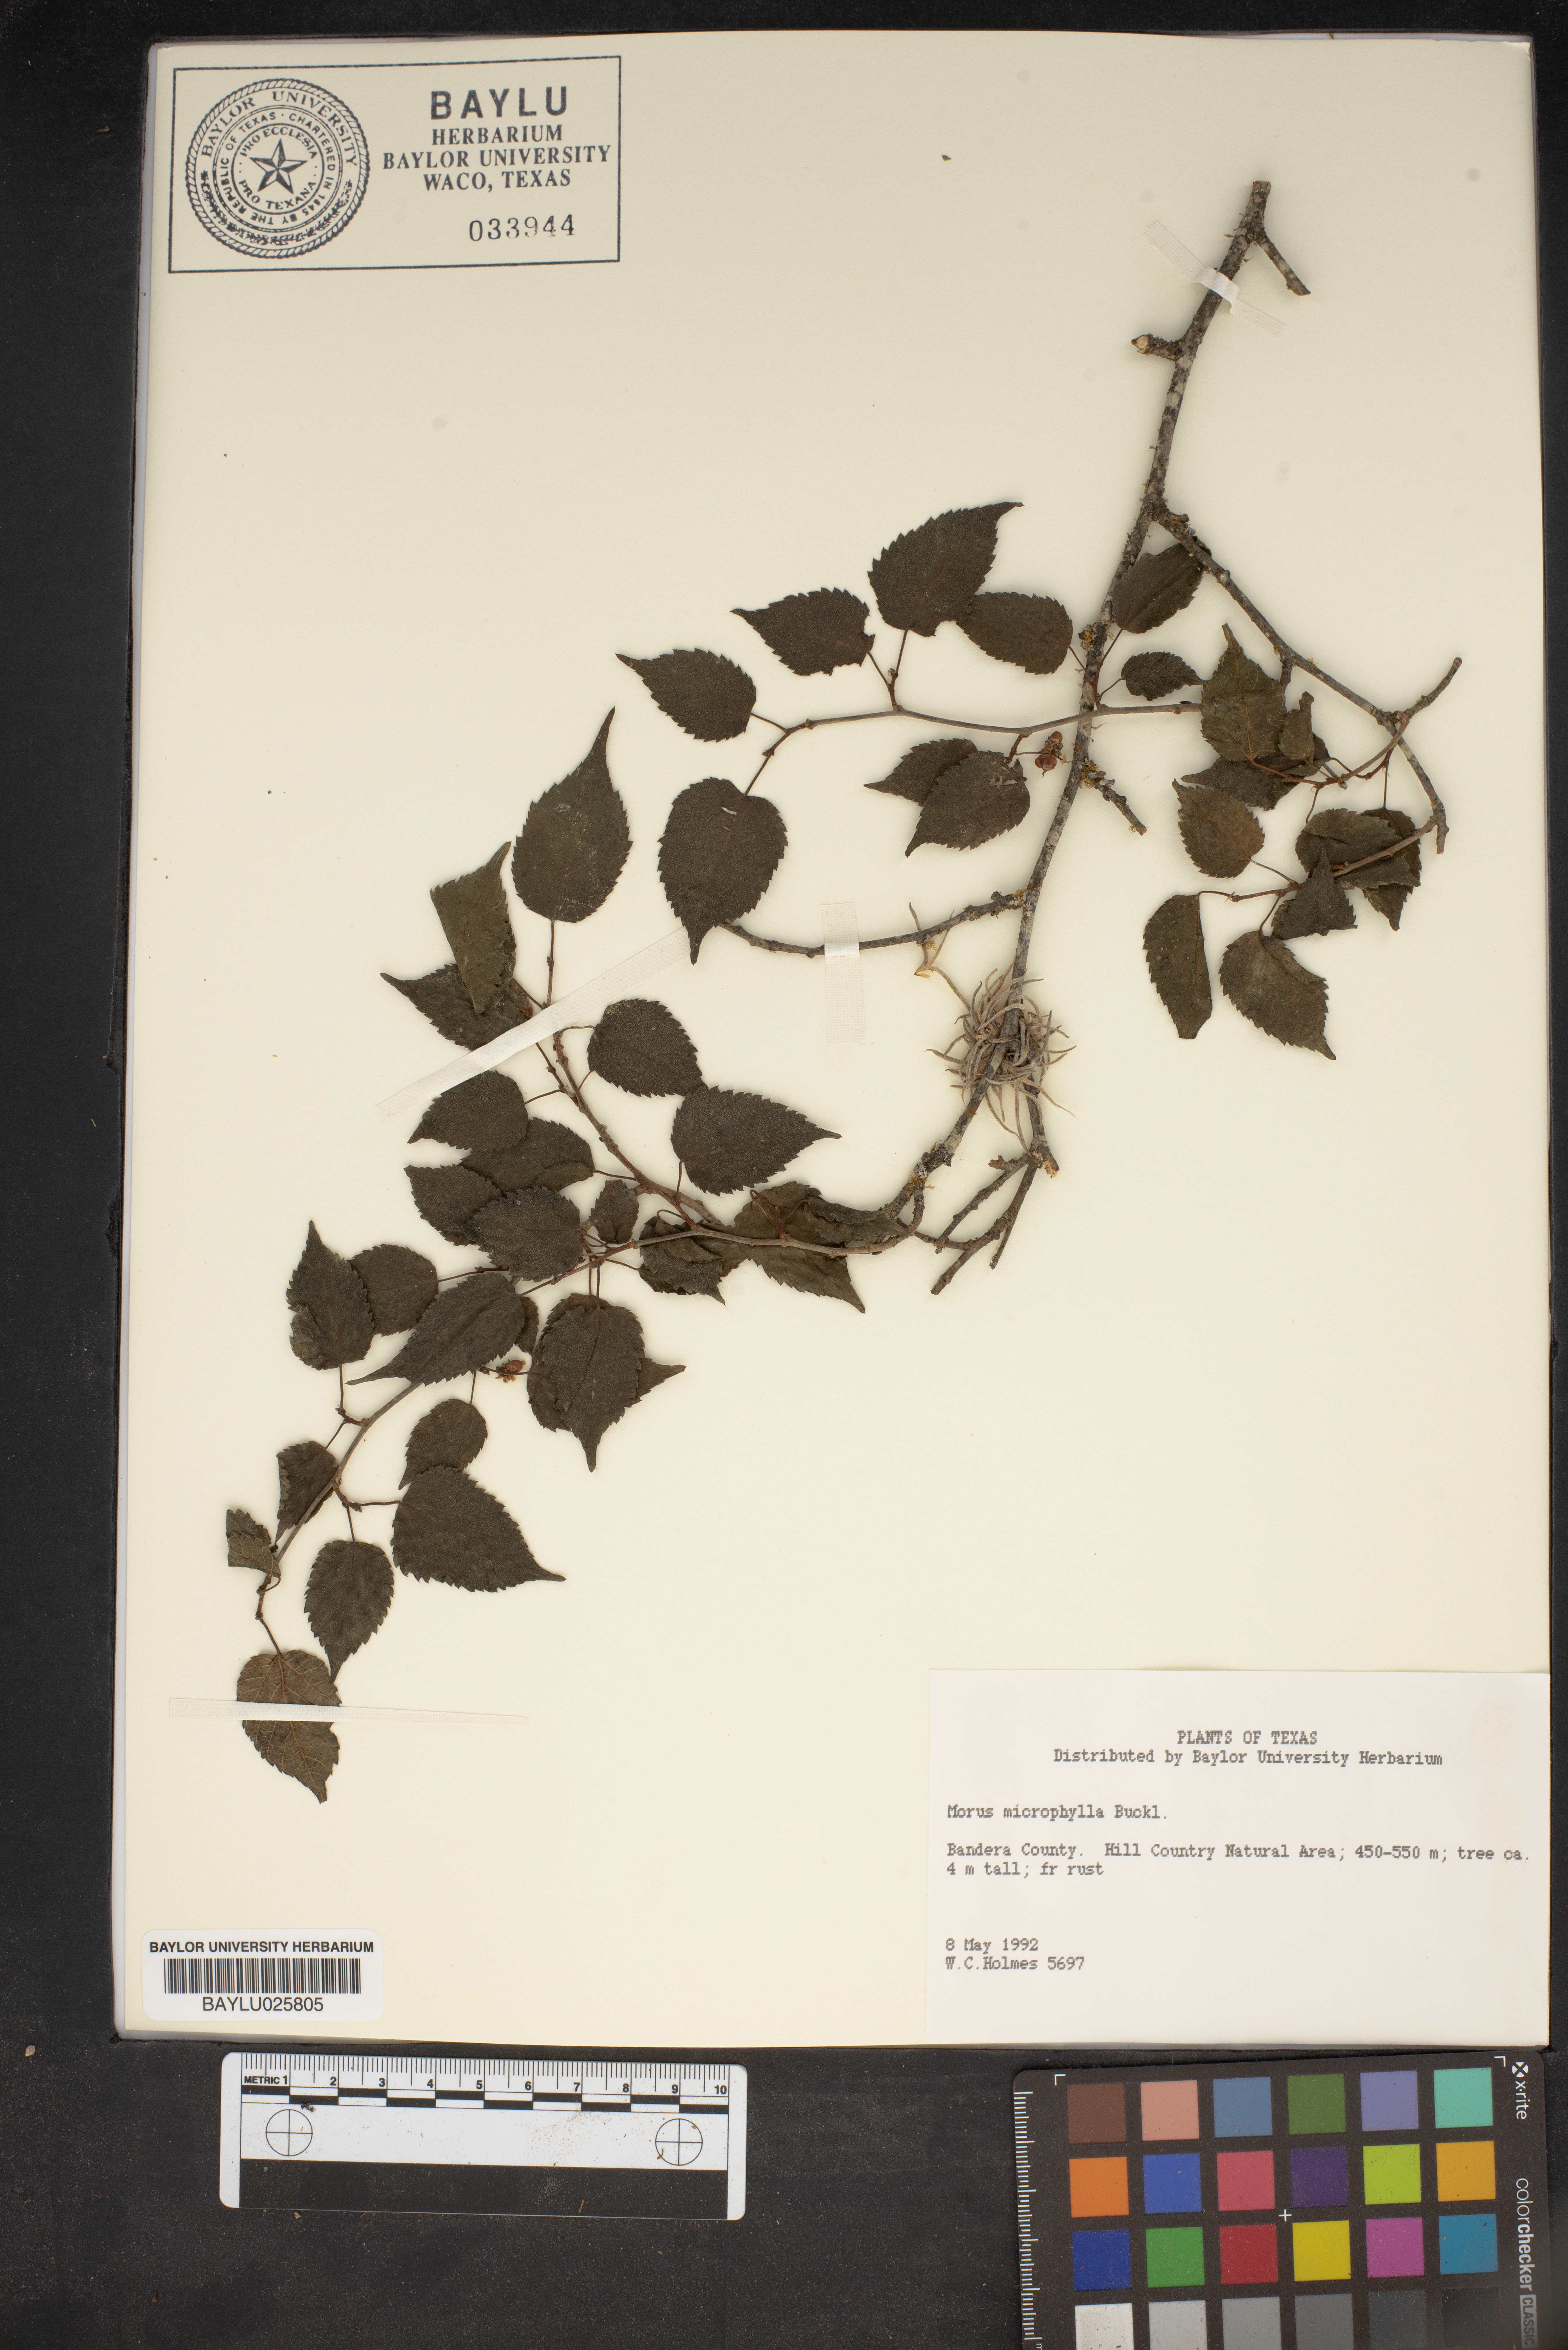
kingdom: Plantae
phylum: Tracheophyta
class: Magnoliopsida
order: Rosales
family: Moraceae
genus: Morus
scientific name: Morus microphylla
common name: Mexican mulberry
